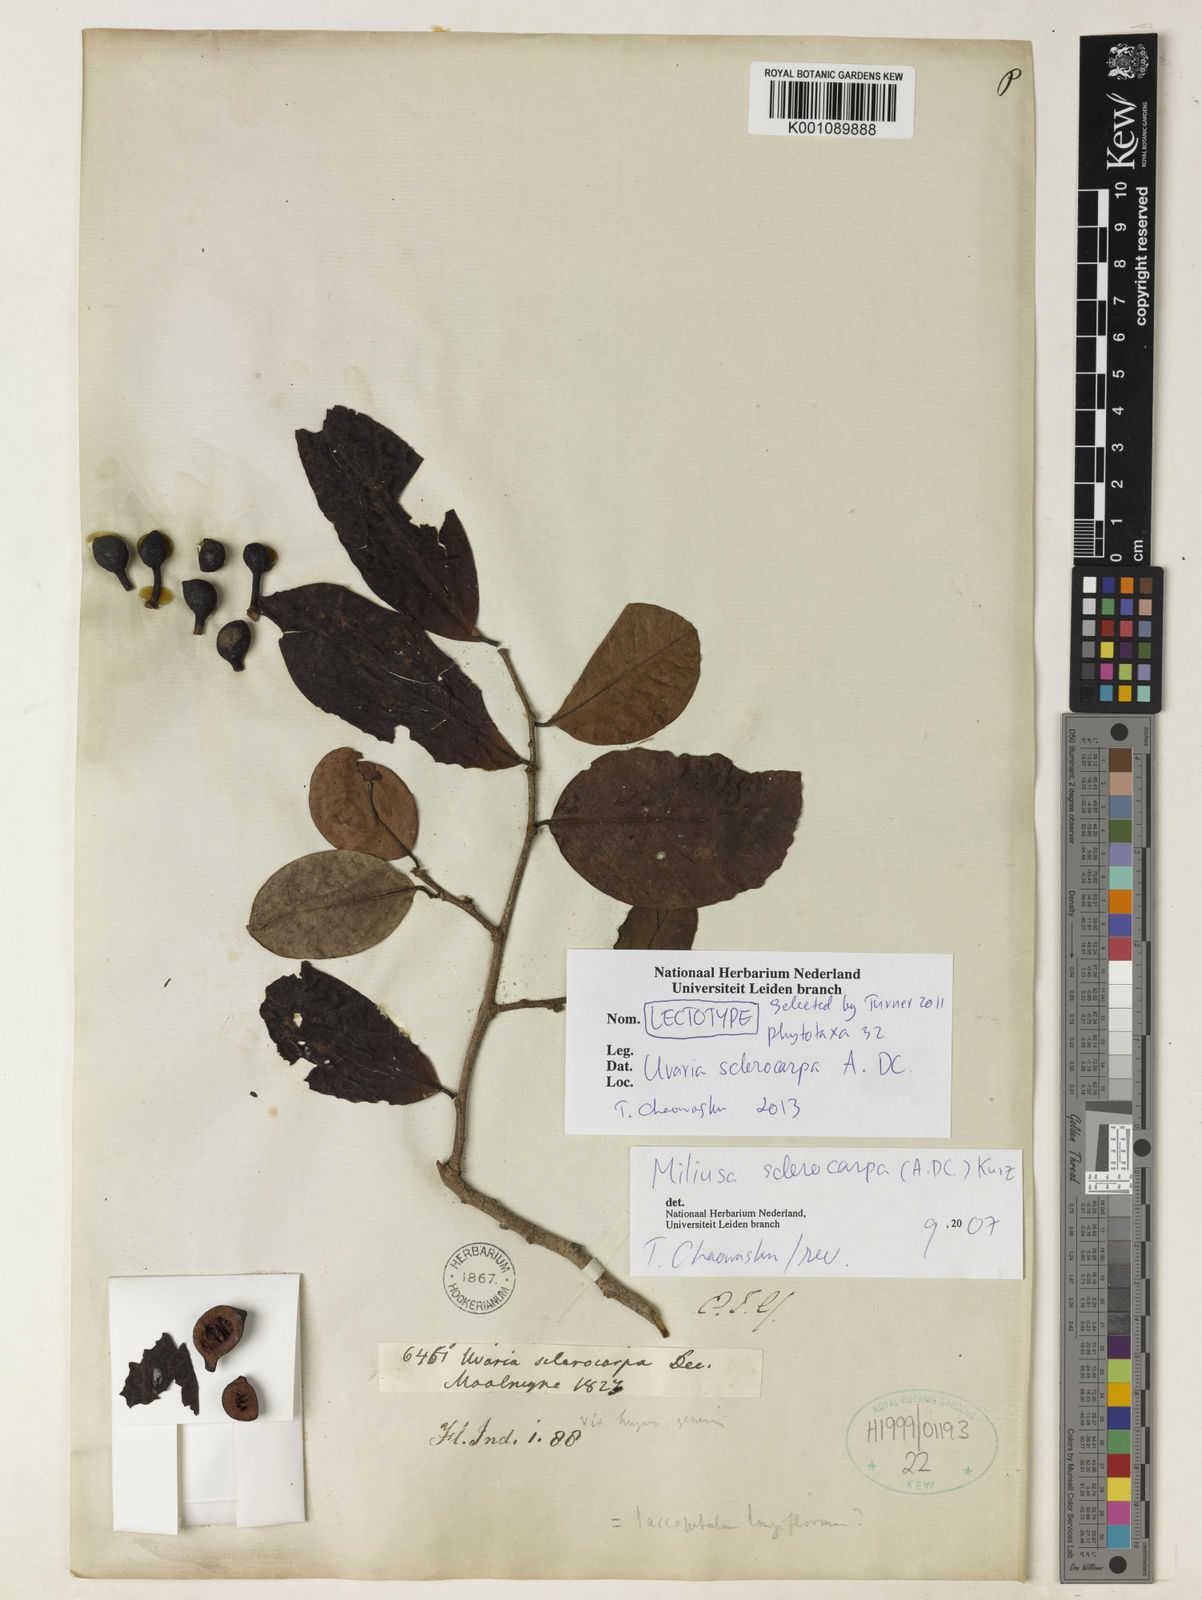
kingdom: Plantae
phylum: Tracheophyta
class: Magnoliopsida
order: Magnoliales
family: Annonaceae
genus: Miliusa
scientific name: Miliusa sclerocarpa
